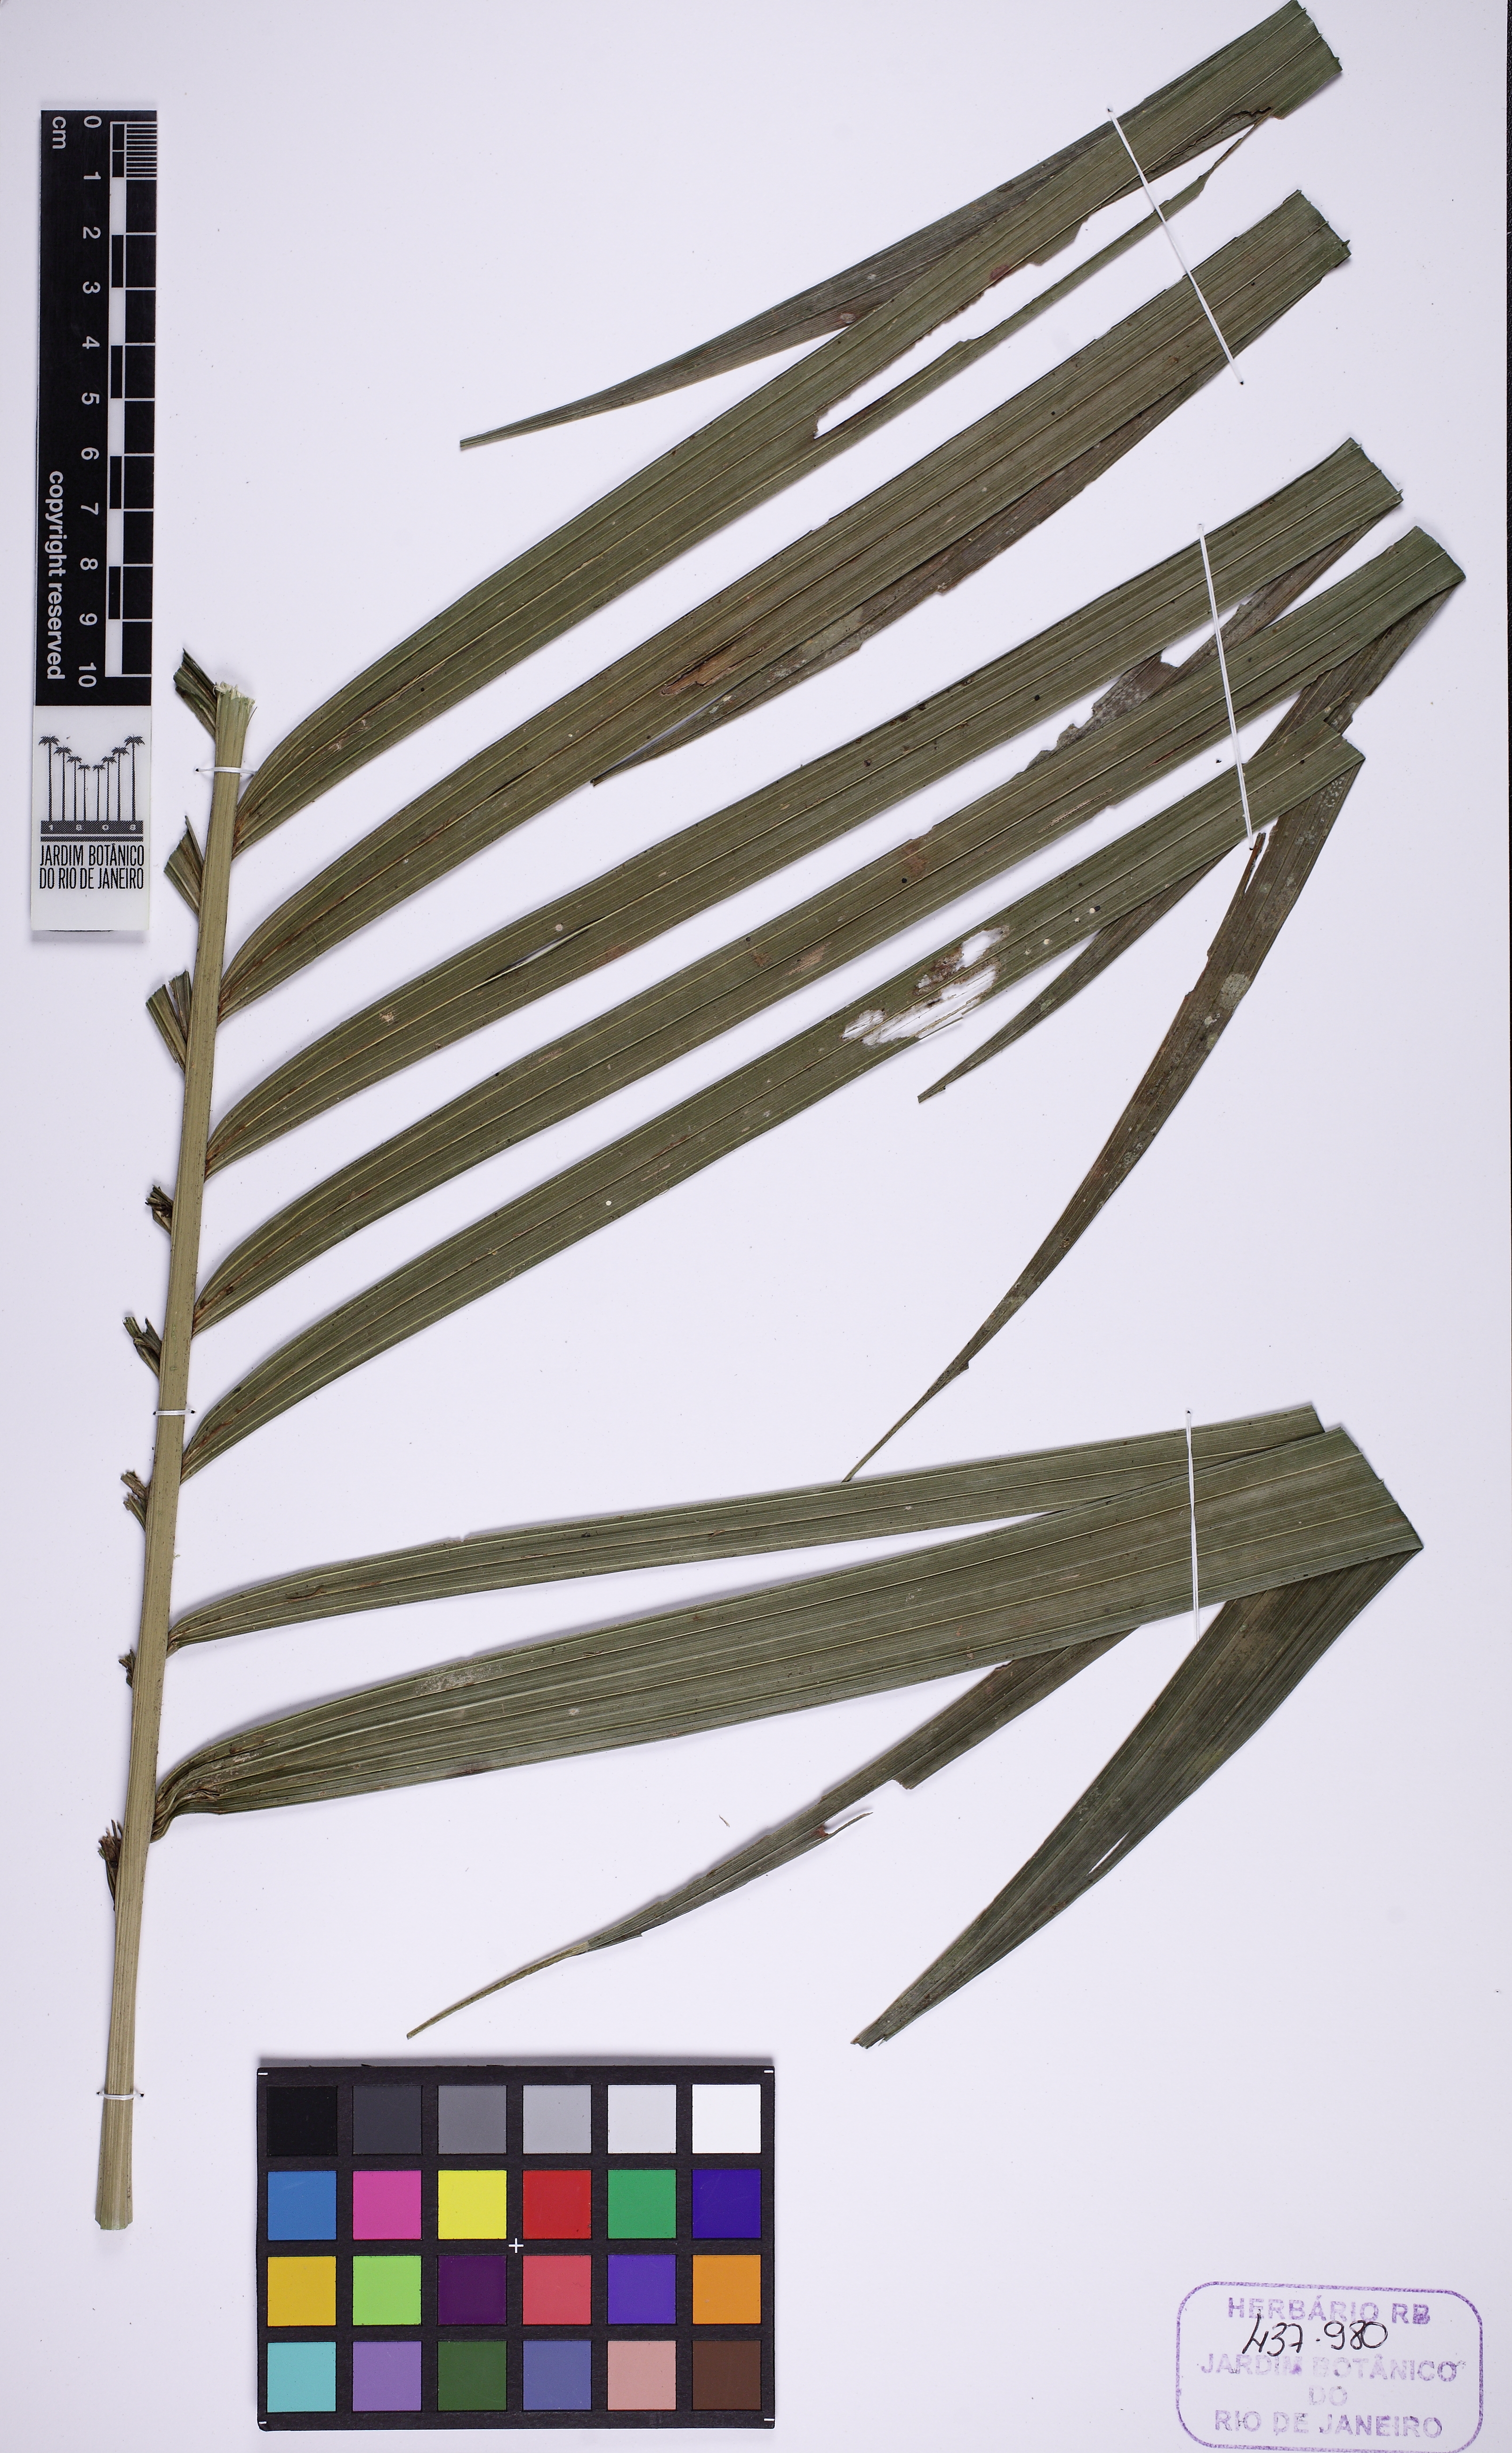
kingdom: Plantae
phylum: Tracheophyta
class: Liliopsida
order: Arecales
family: Arecaceae
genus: Geonoma
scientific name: Geonoma pohliana
